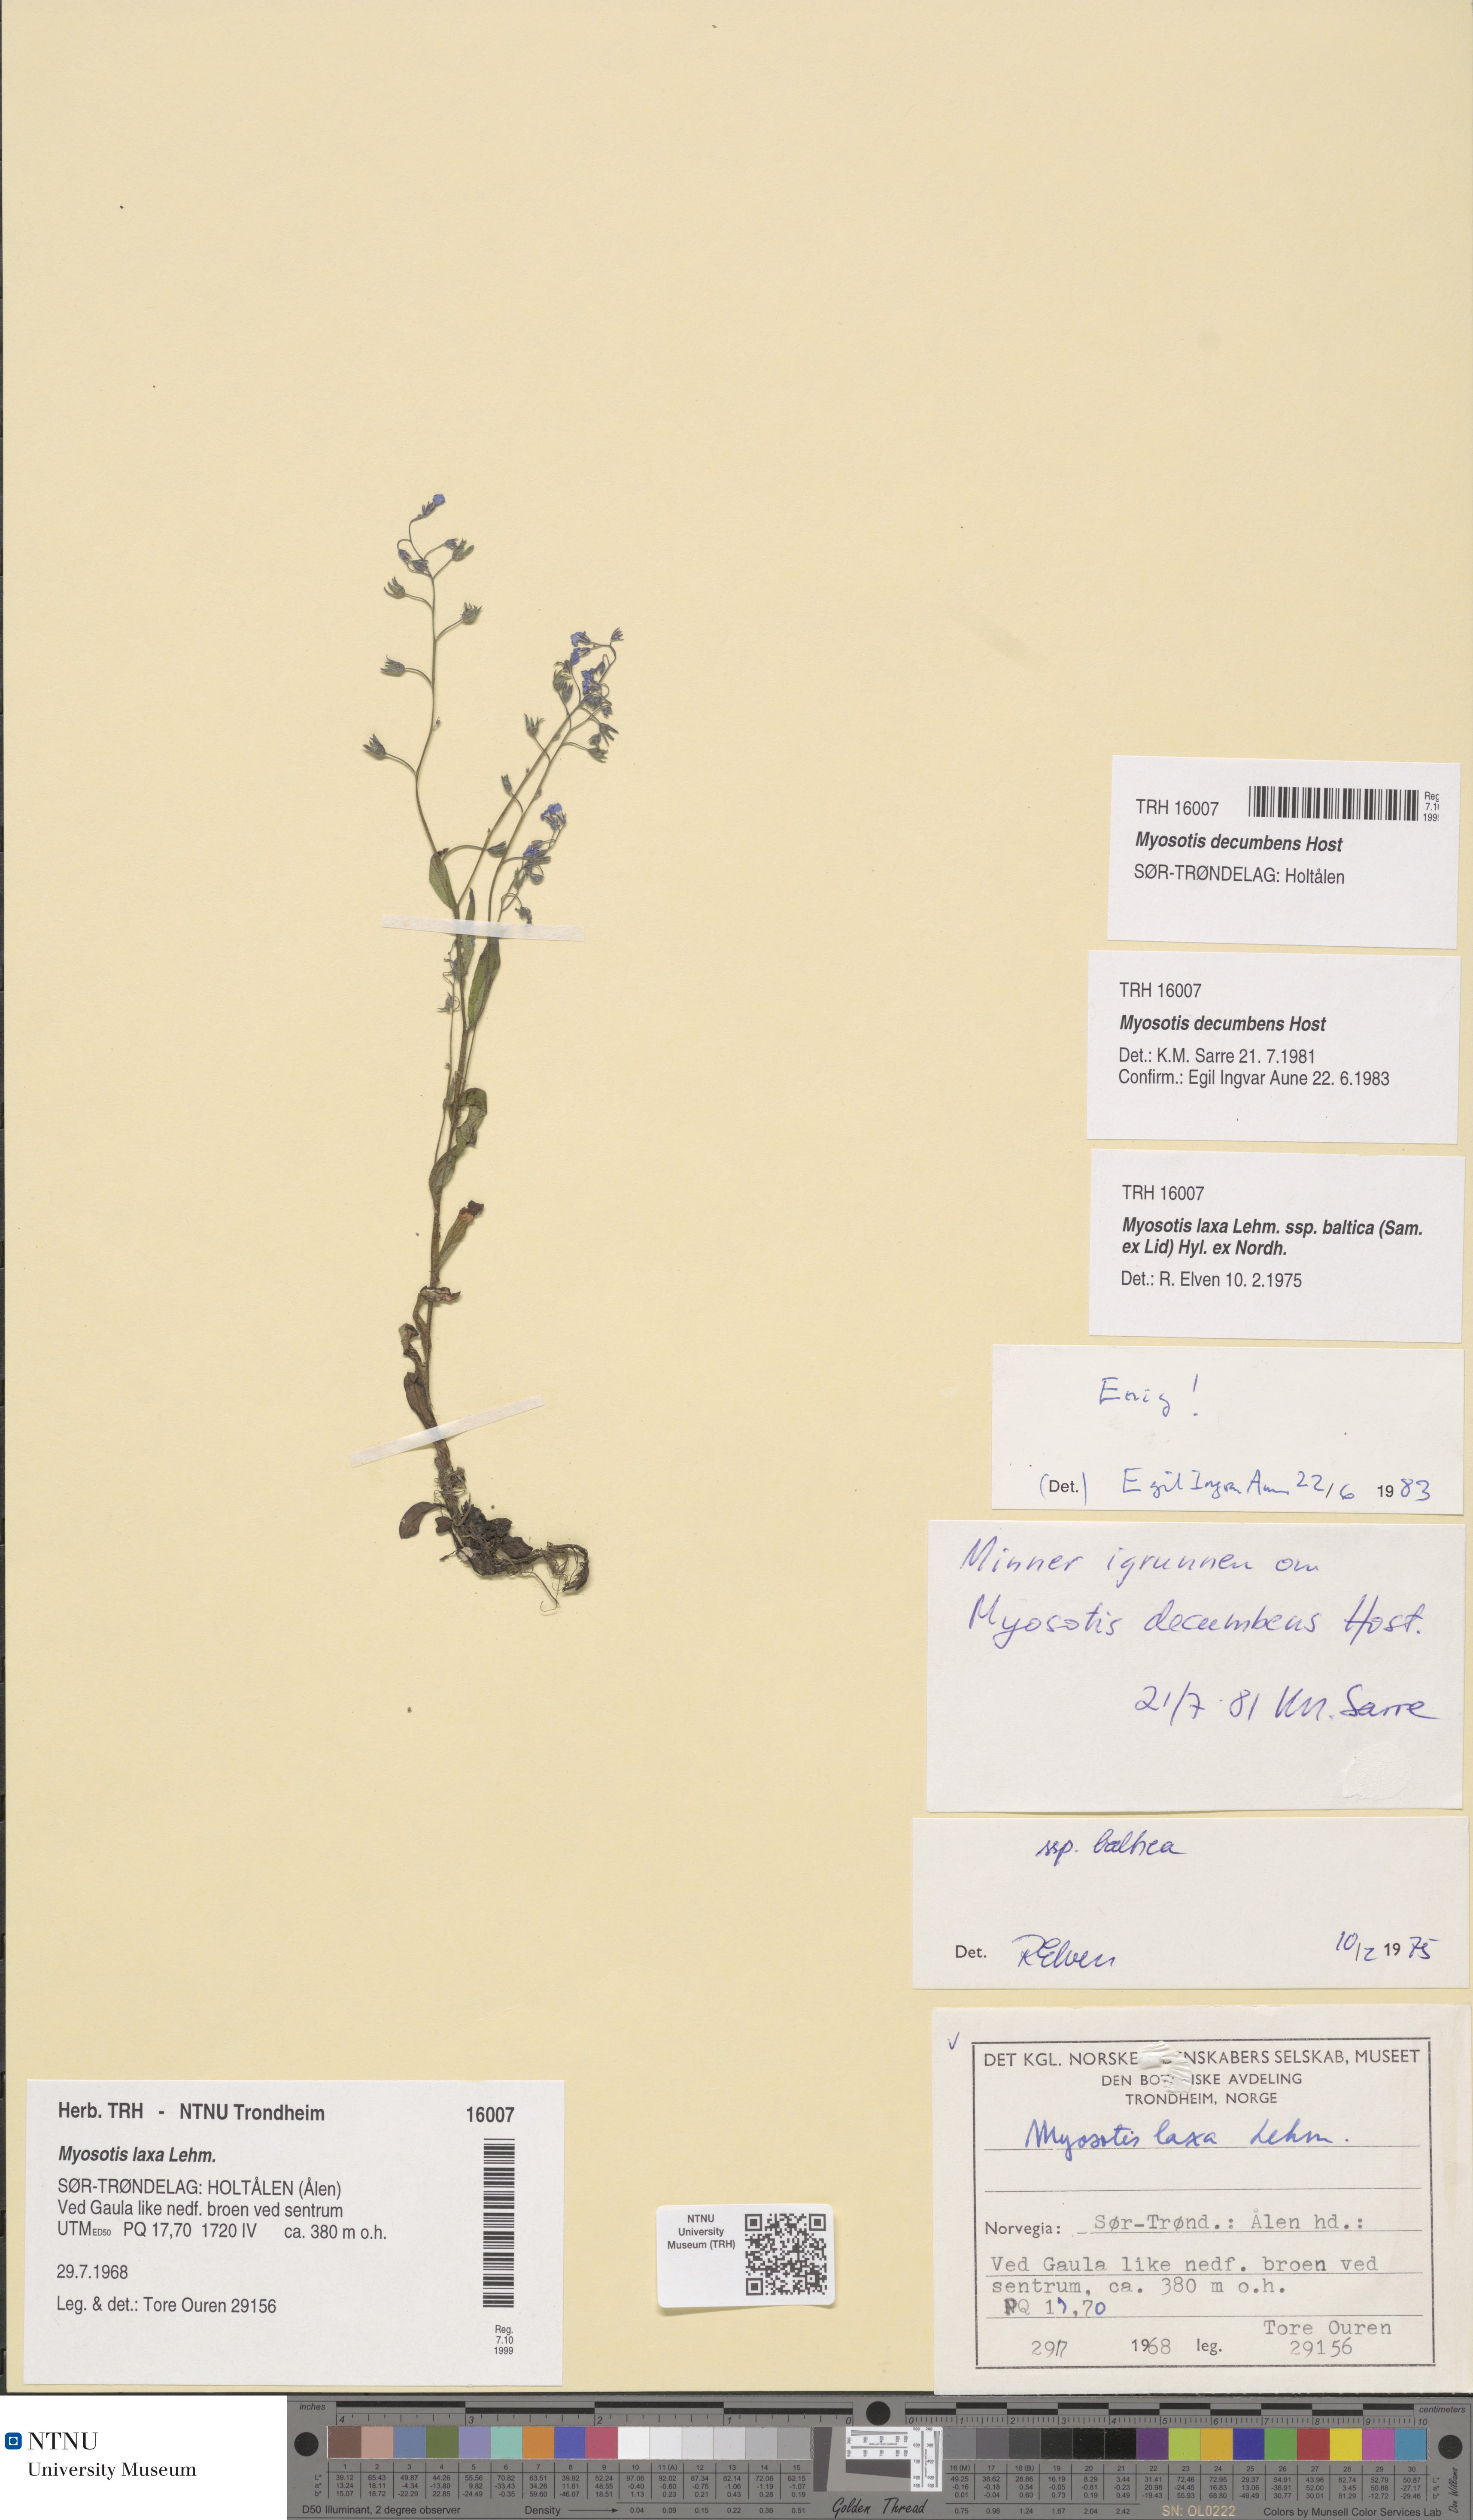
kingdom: Plantae
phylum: Tracheophyta
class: Magnoliopsida
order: Boraginales
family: Boraginaceae
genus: Myosotis
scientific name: Myosotis decumbens
